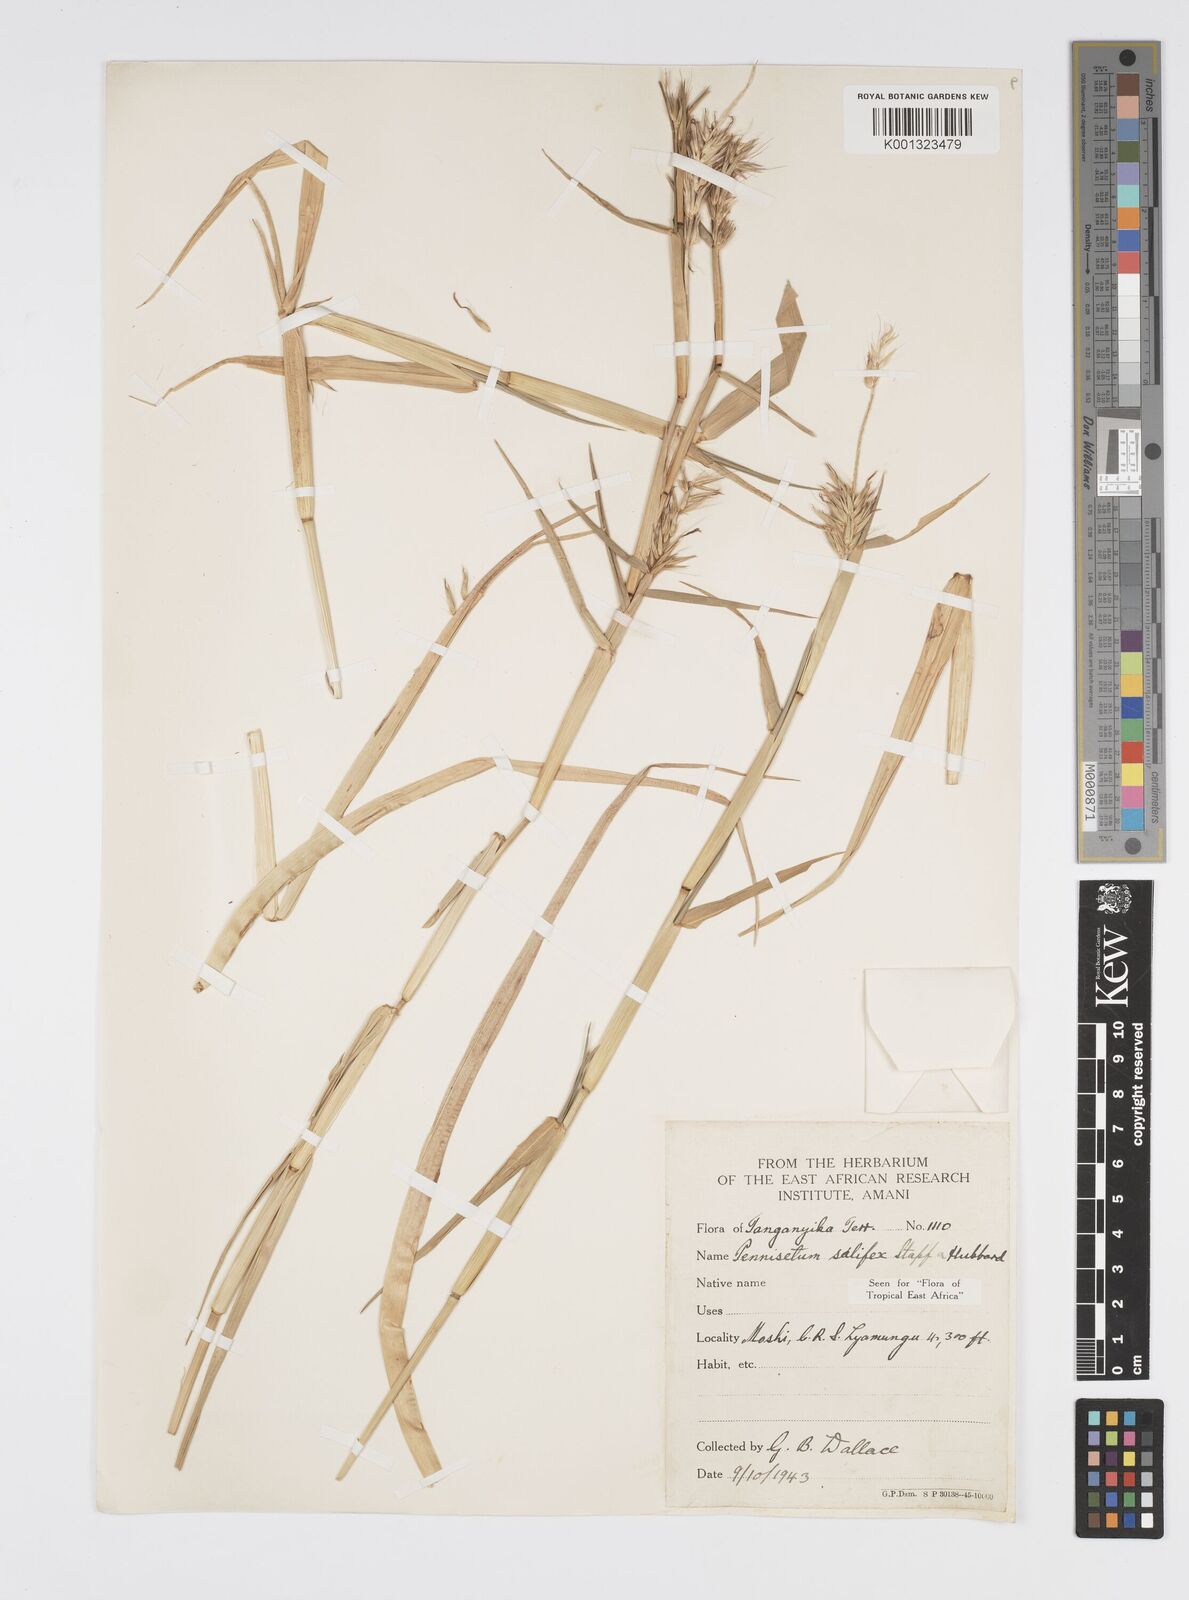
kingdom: Plantae
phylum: Tracheophyta
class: Liliopsida
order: Poales
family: Poaceae
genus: Cenchrus
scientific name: Cenchrus riparius
